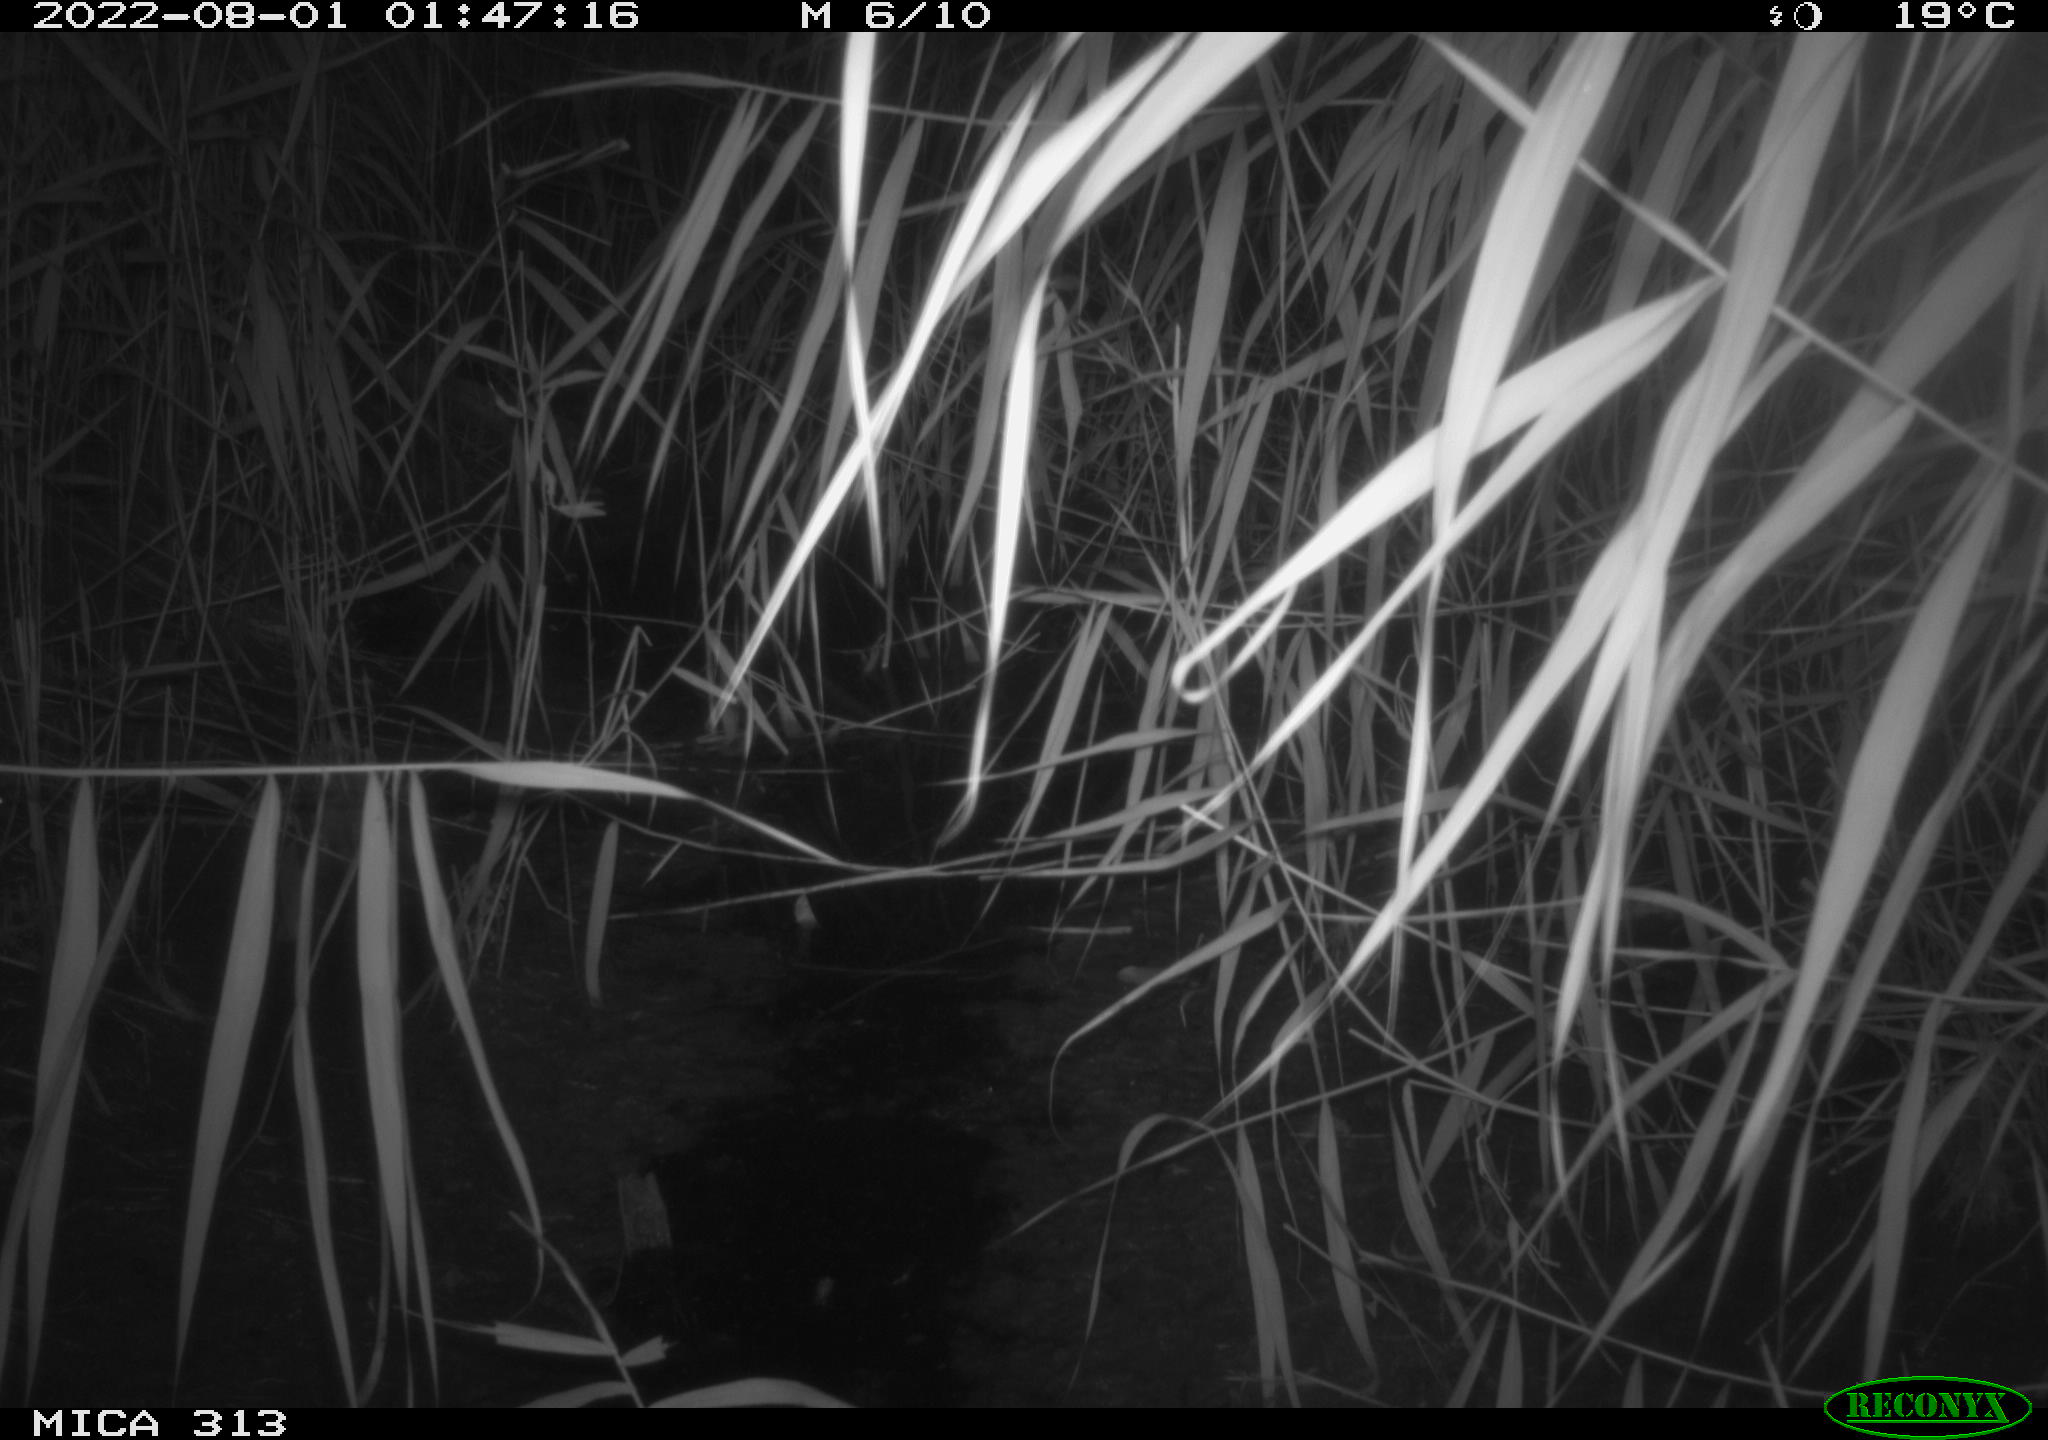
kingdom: Animalia
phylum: Chordata
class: Mammalia
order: Rodentia
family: Muridae
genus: Rattus
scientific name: Rattus norvegicus
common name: Brown rat
